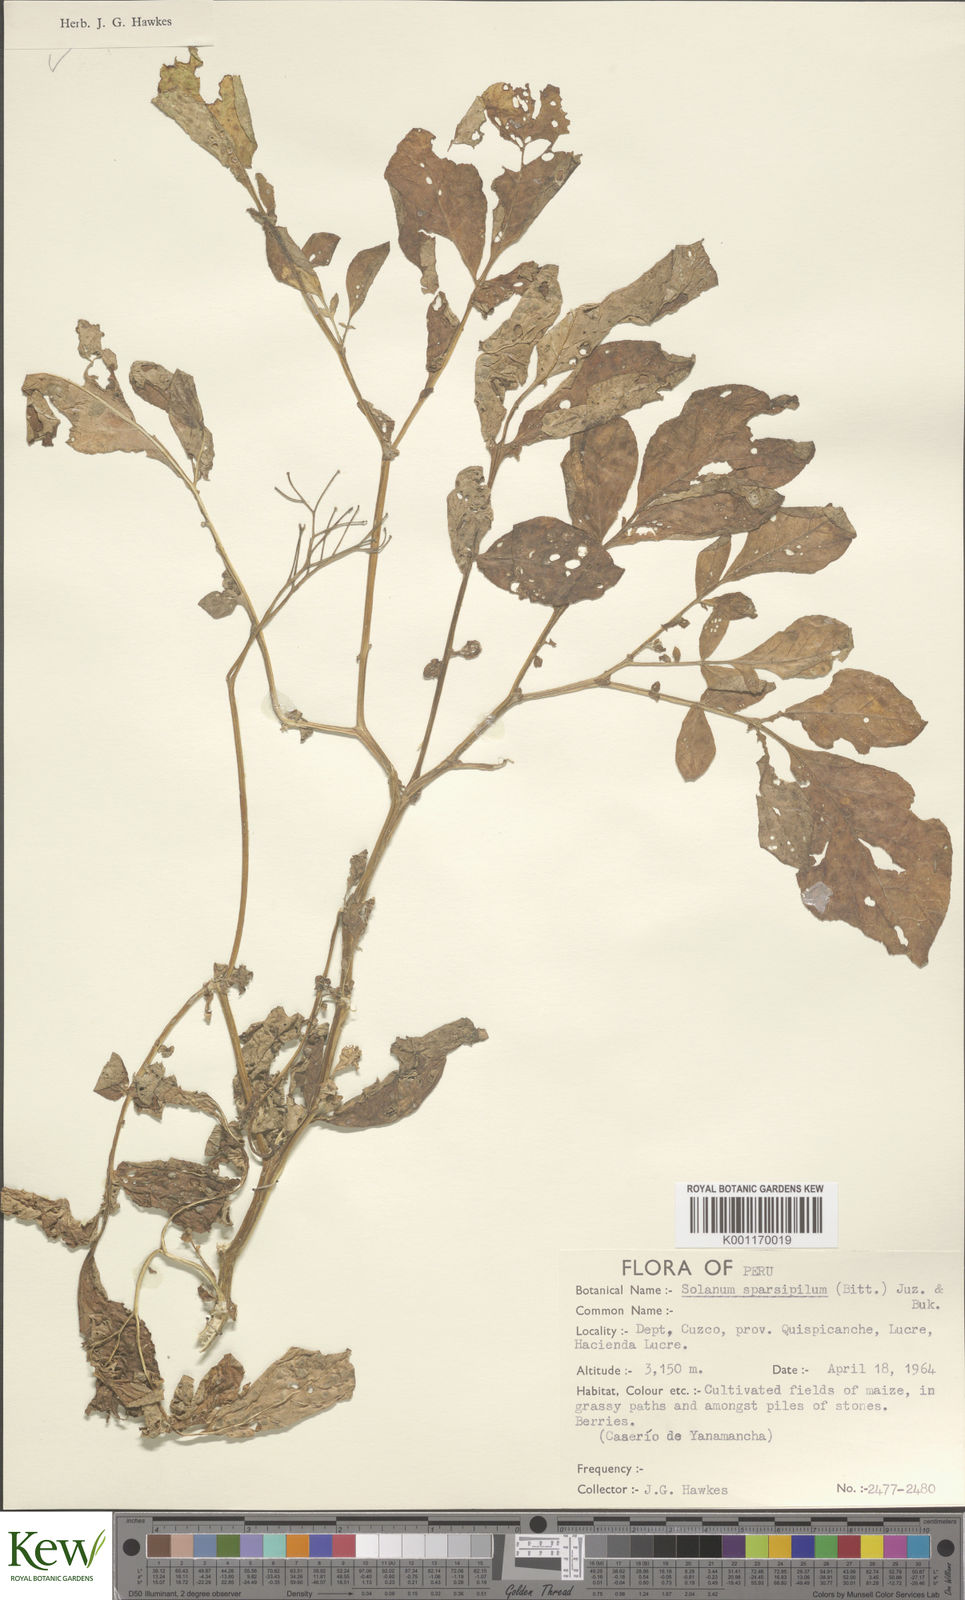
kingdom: Plantae
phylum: Tracheophyta
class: Magnoliopsida
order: Solanales
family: Solanaceae
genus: Solanum
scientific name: Solanum brevicaule
